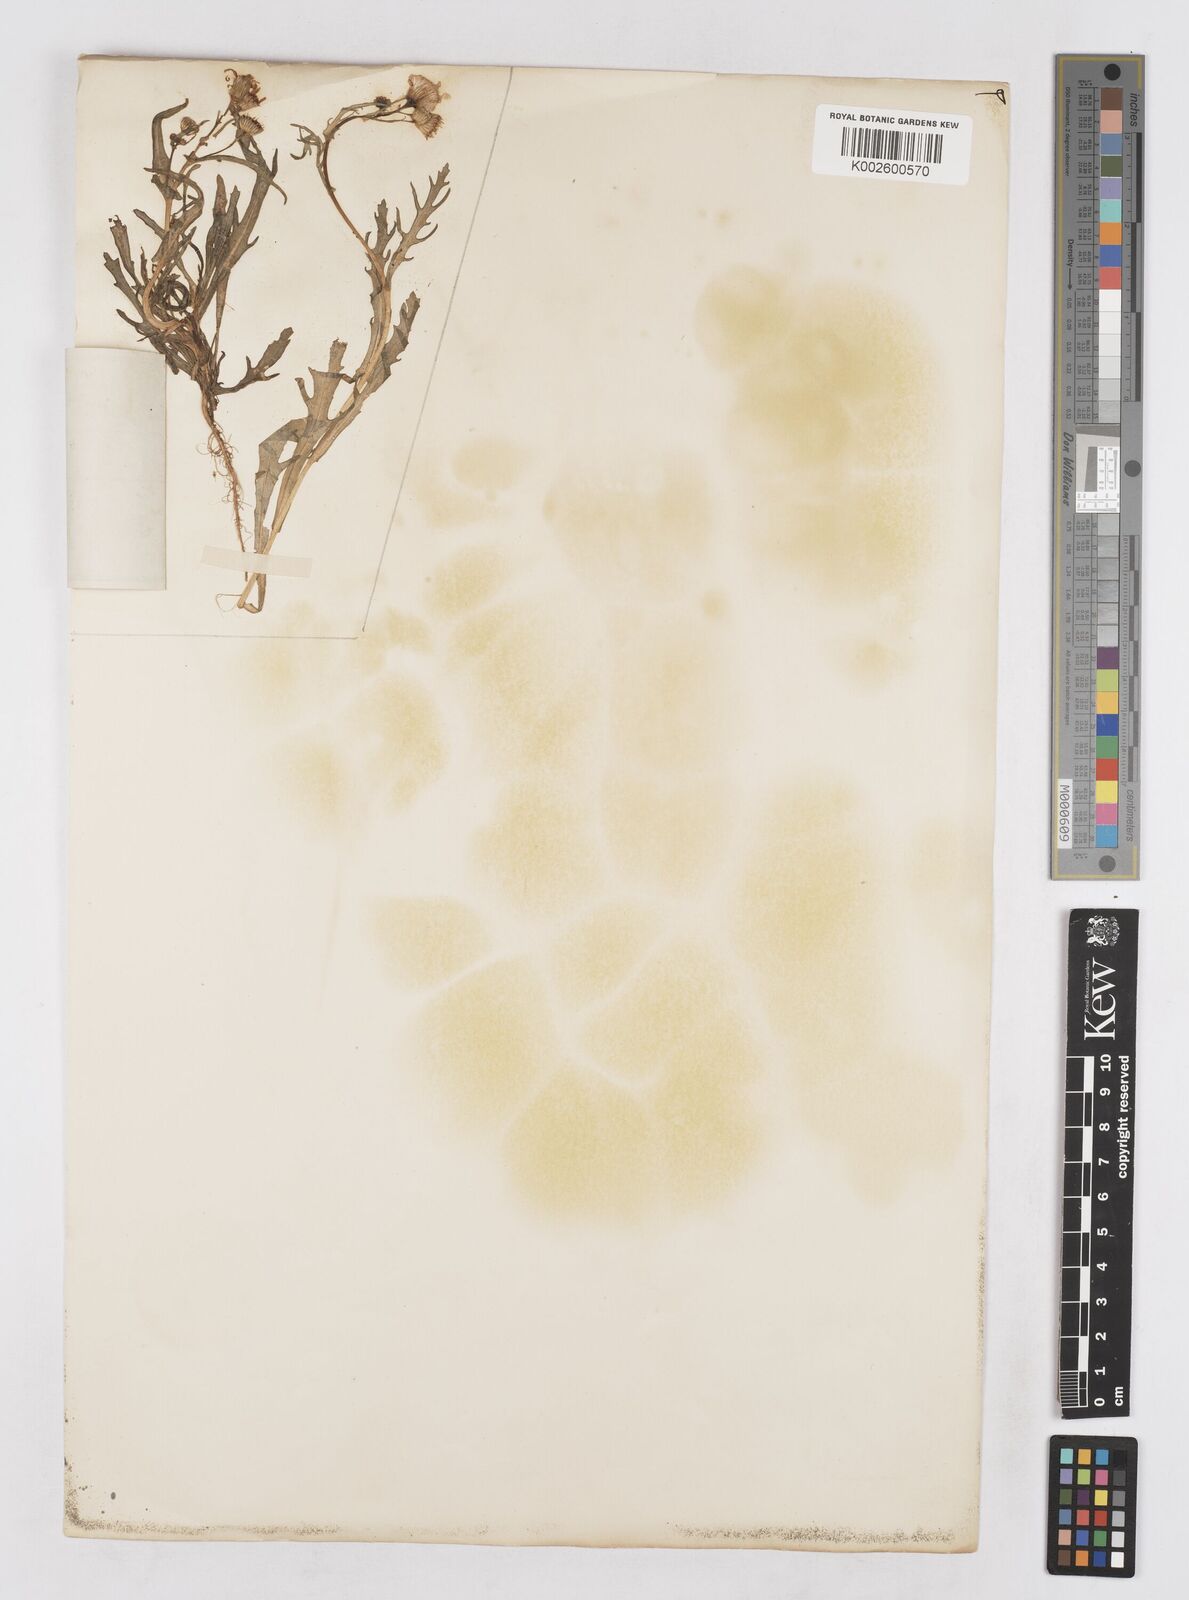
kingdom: Plantae
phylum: Tracheophyta
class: Magnoliopsida
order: Asterales
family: Asteraceae
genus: Senecio
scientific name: Senecio glaucus
